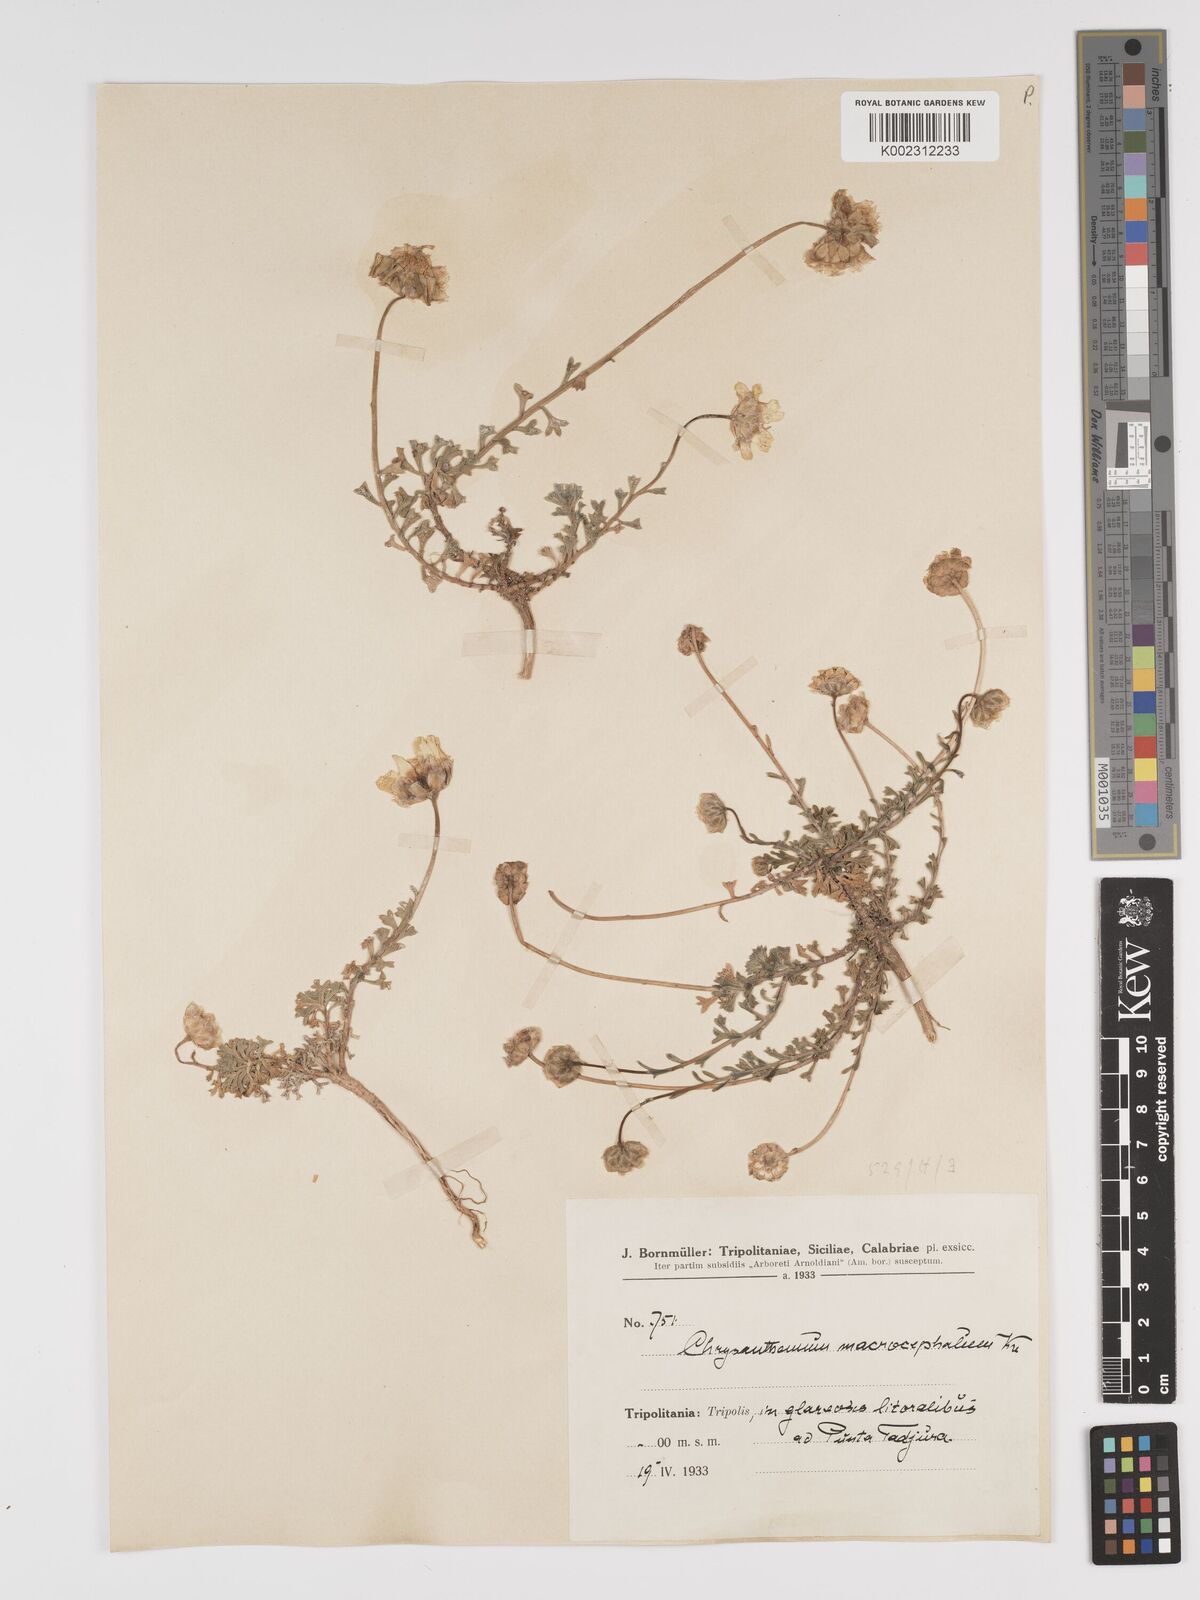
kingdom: Plantae
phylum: Tracheophyta
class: Magnoliopsida
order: Asterales
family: Asteraceae
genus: Tanacetum
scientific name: Tanacetum macrocephalum
